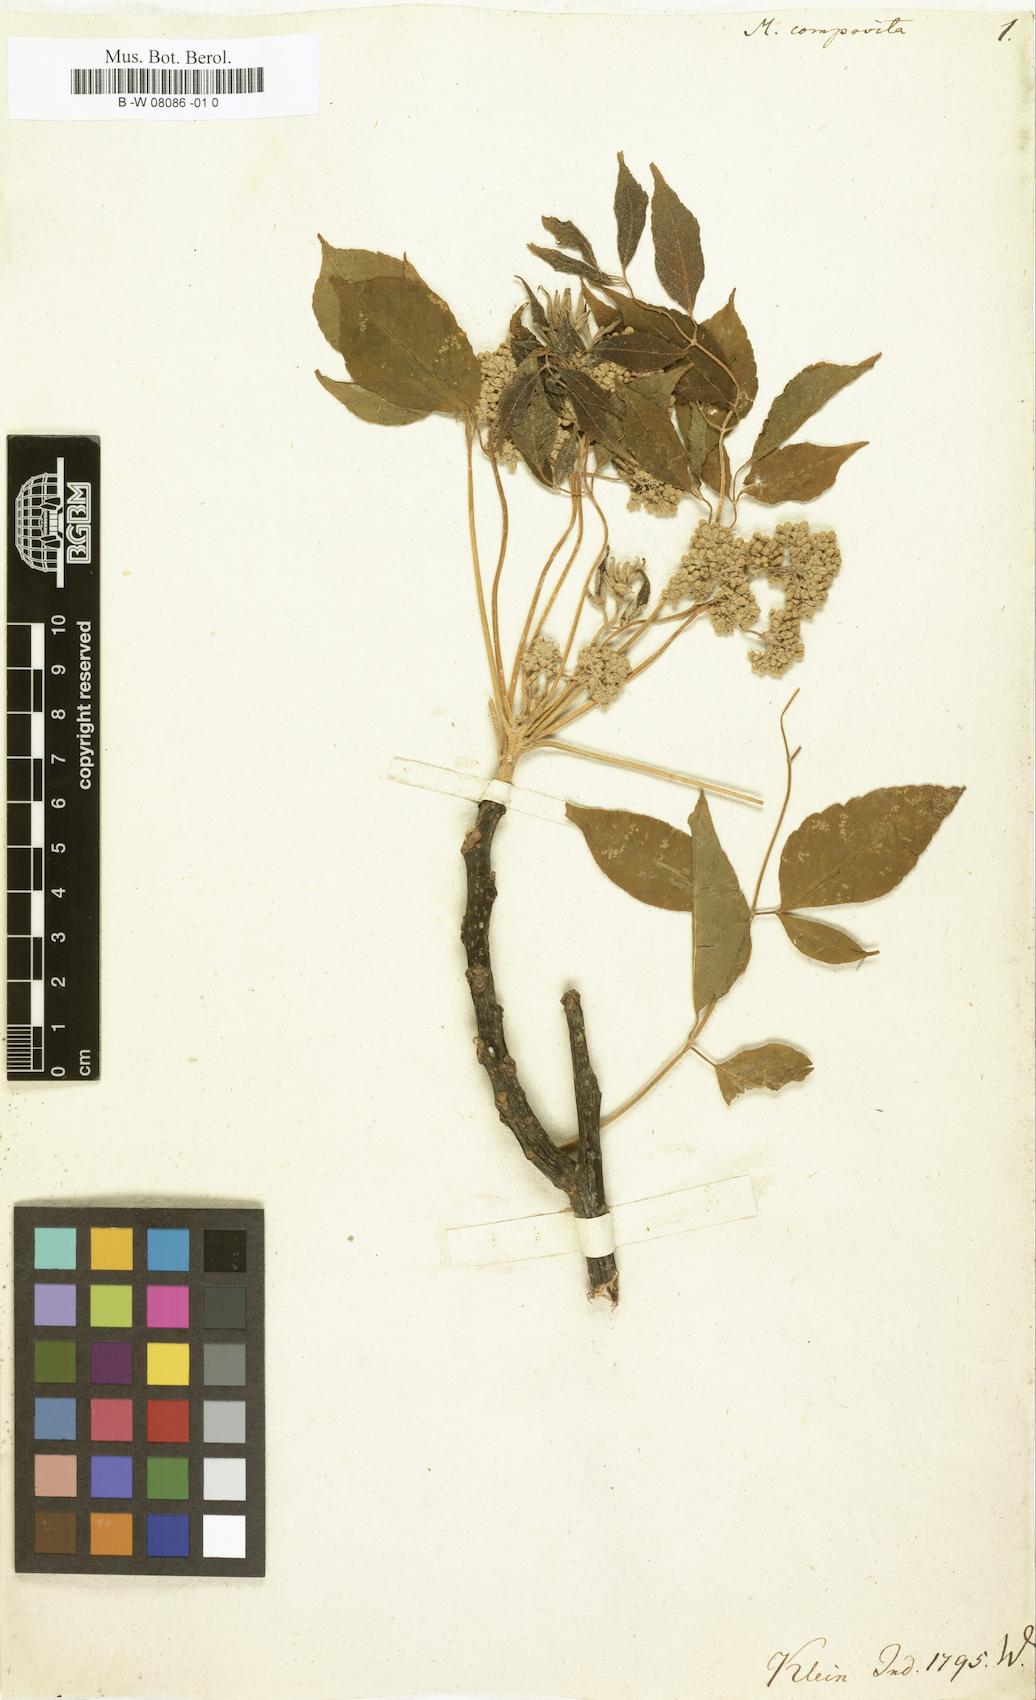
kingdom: Plantae
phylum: Tracheophyta
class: Magnoliopsida
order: Sapindales
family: Meliaceae
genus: Melia
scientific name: Melia composita
